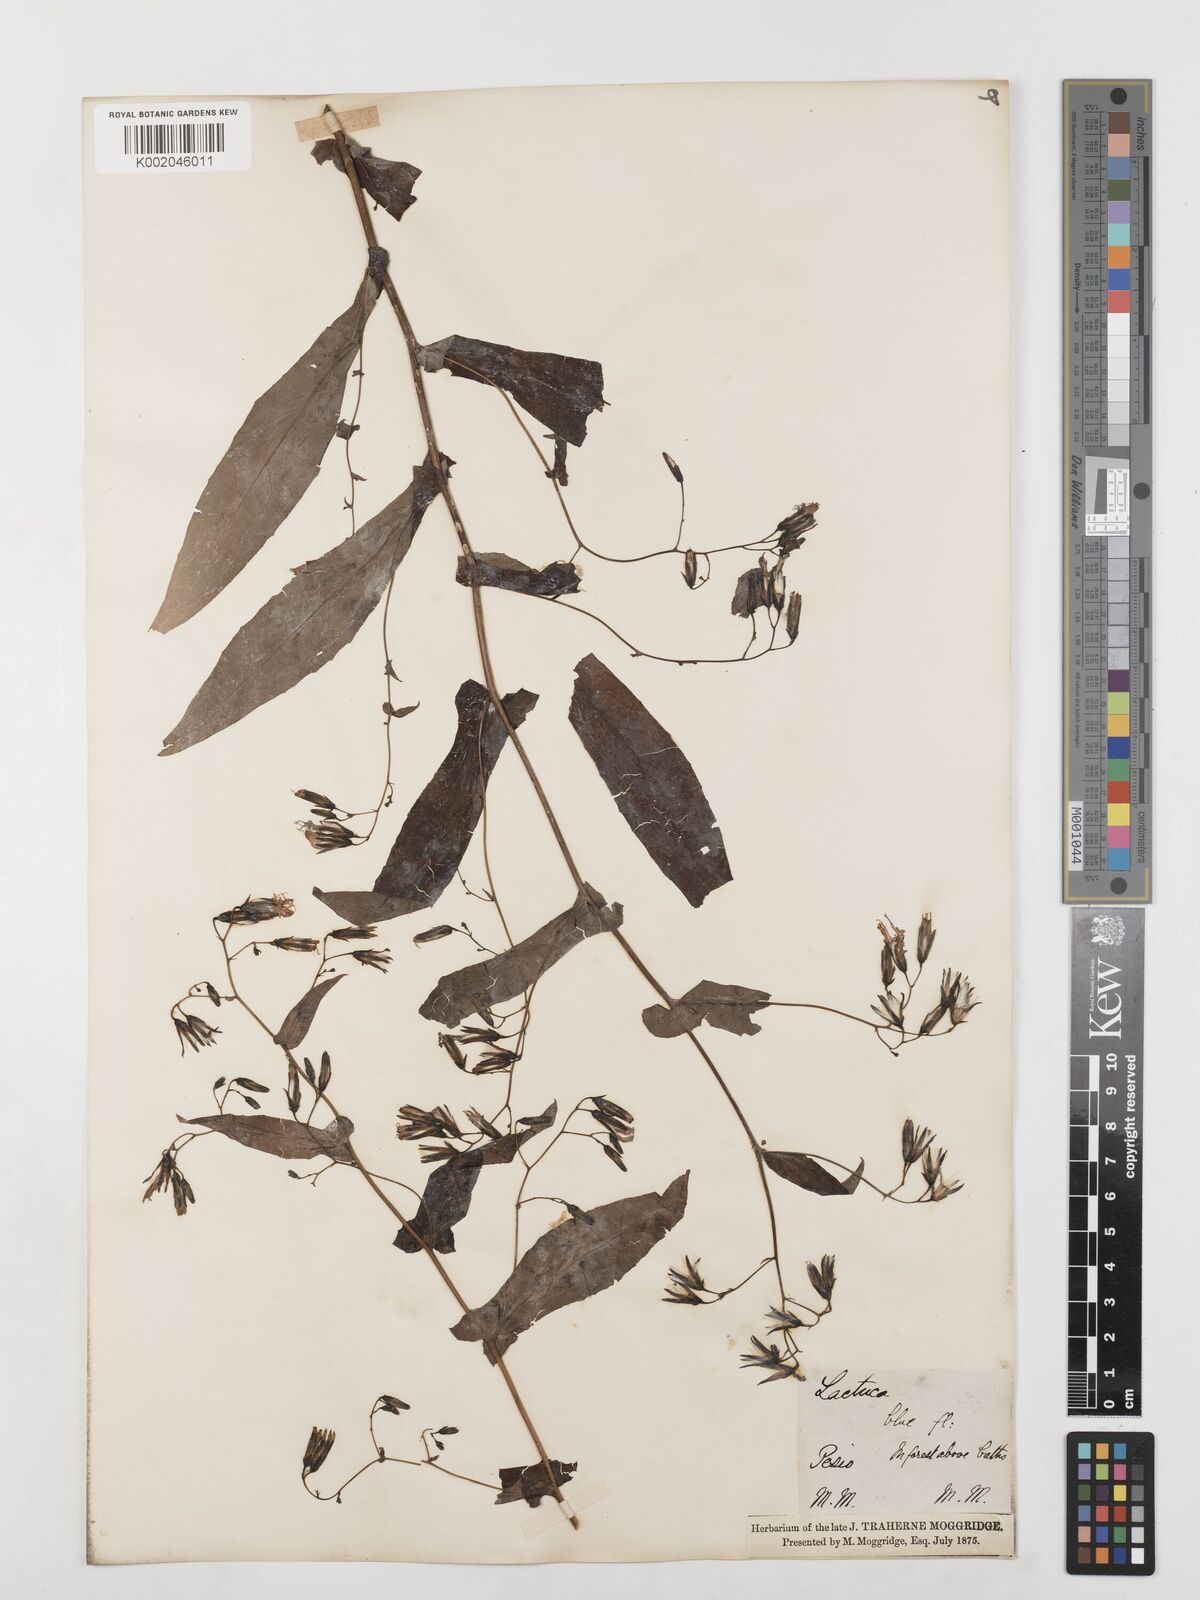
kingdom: Plantae
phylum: Tracheophyta
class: Magnoliopsida
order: Asterales
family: Asteraceae
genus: Prenanthes
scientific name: Prenanthes purpurea
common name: Purple lettuce
